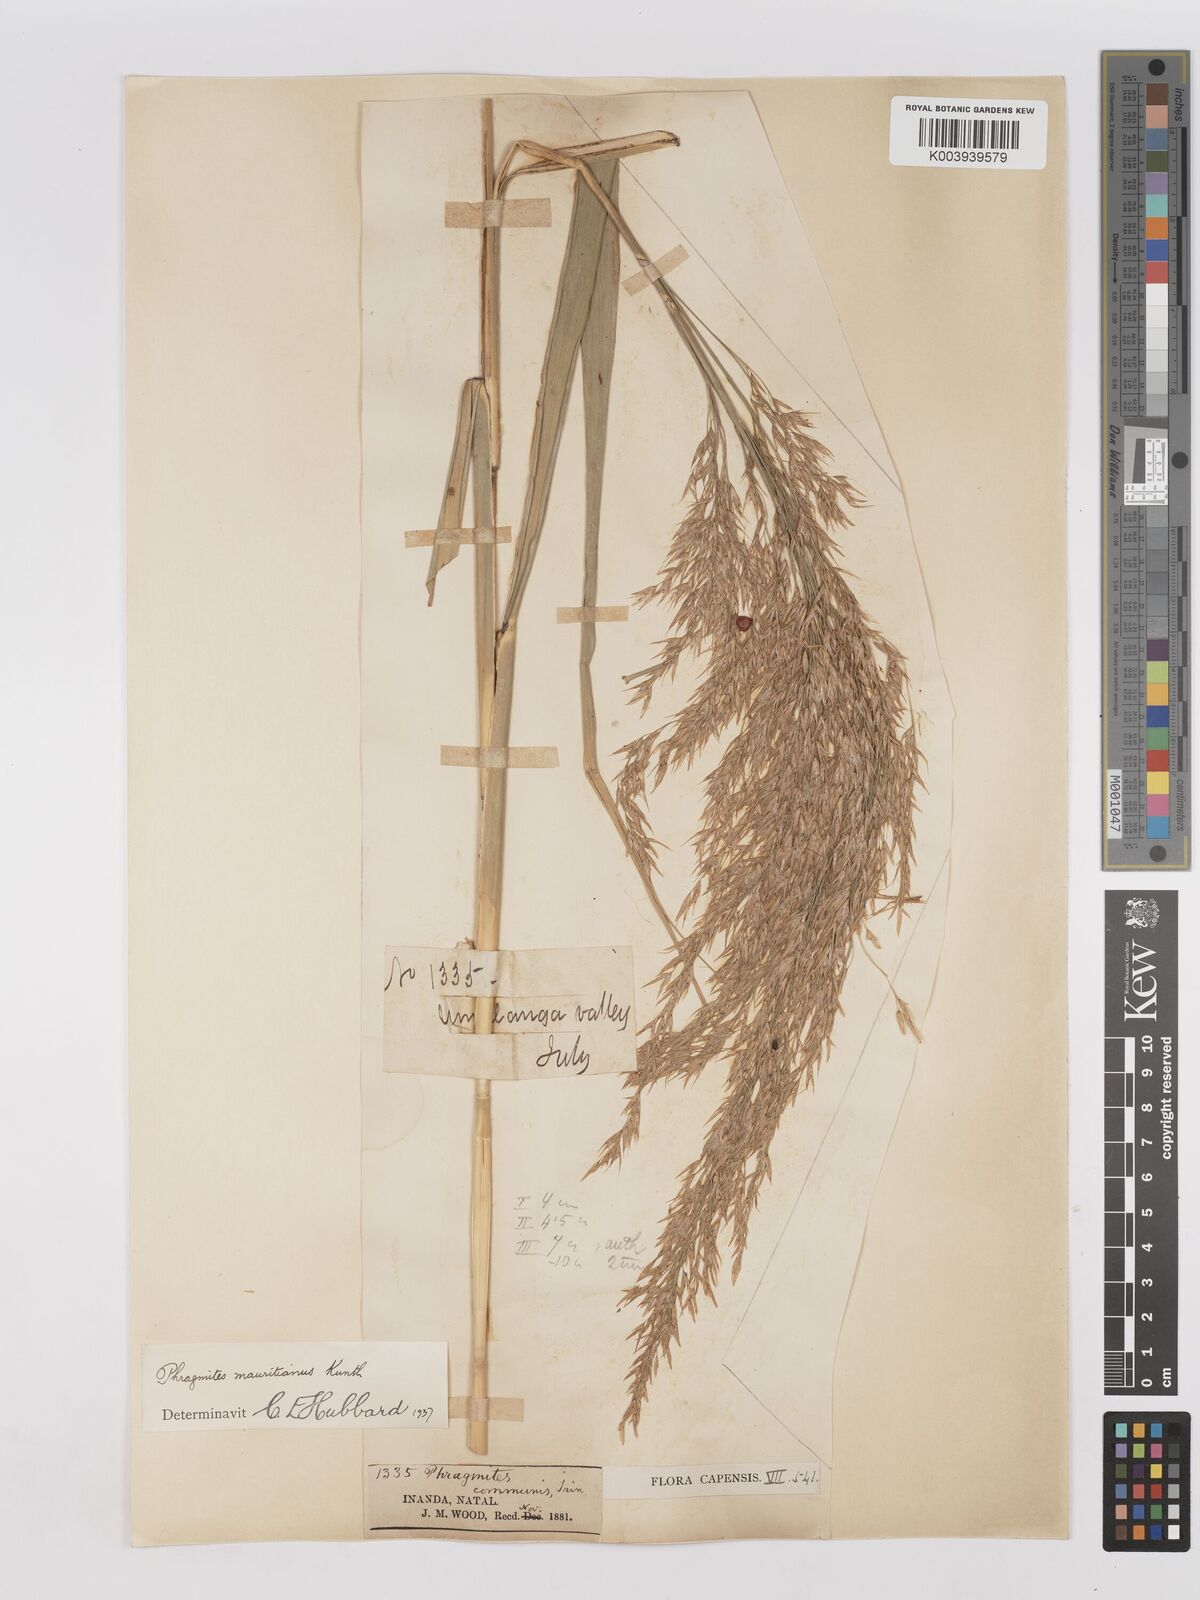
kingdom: Plantae
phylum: Tracheophyta
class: Liliopsida
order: Poales
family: Poaceae
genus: Phragmites
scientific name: Phragmites mauritianus
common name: Reed grass
